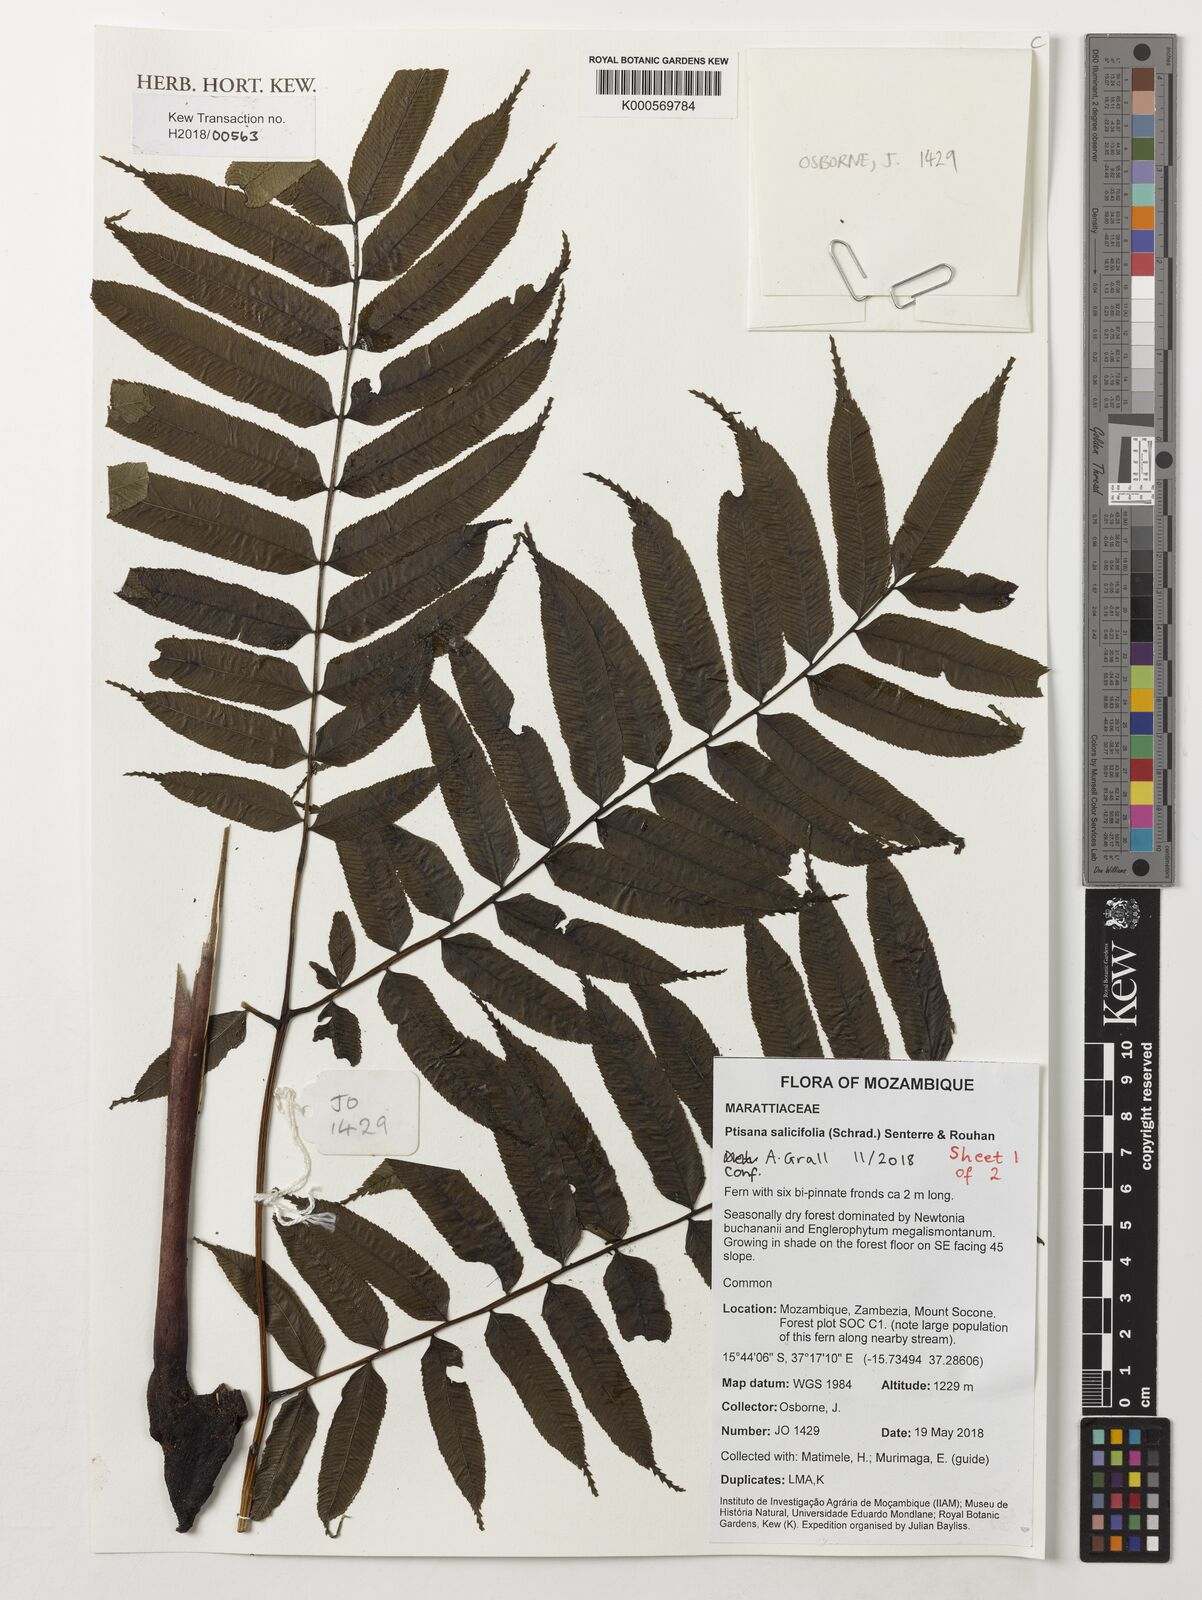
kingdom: Plantae
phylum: Tracheophyta
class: Polypodiopsida
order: Marattiales
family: Marattiaceae
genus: Ptisana
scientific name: Ptisana salicifolia
